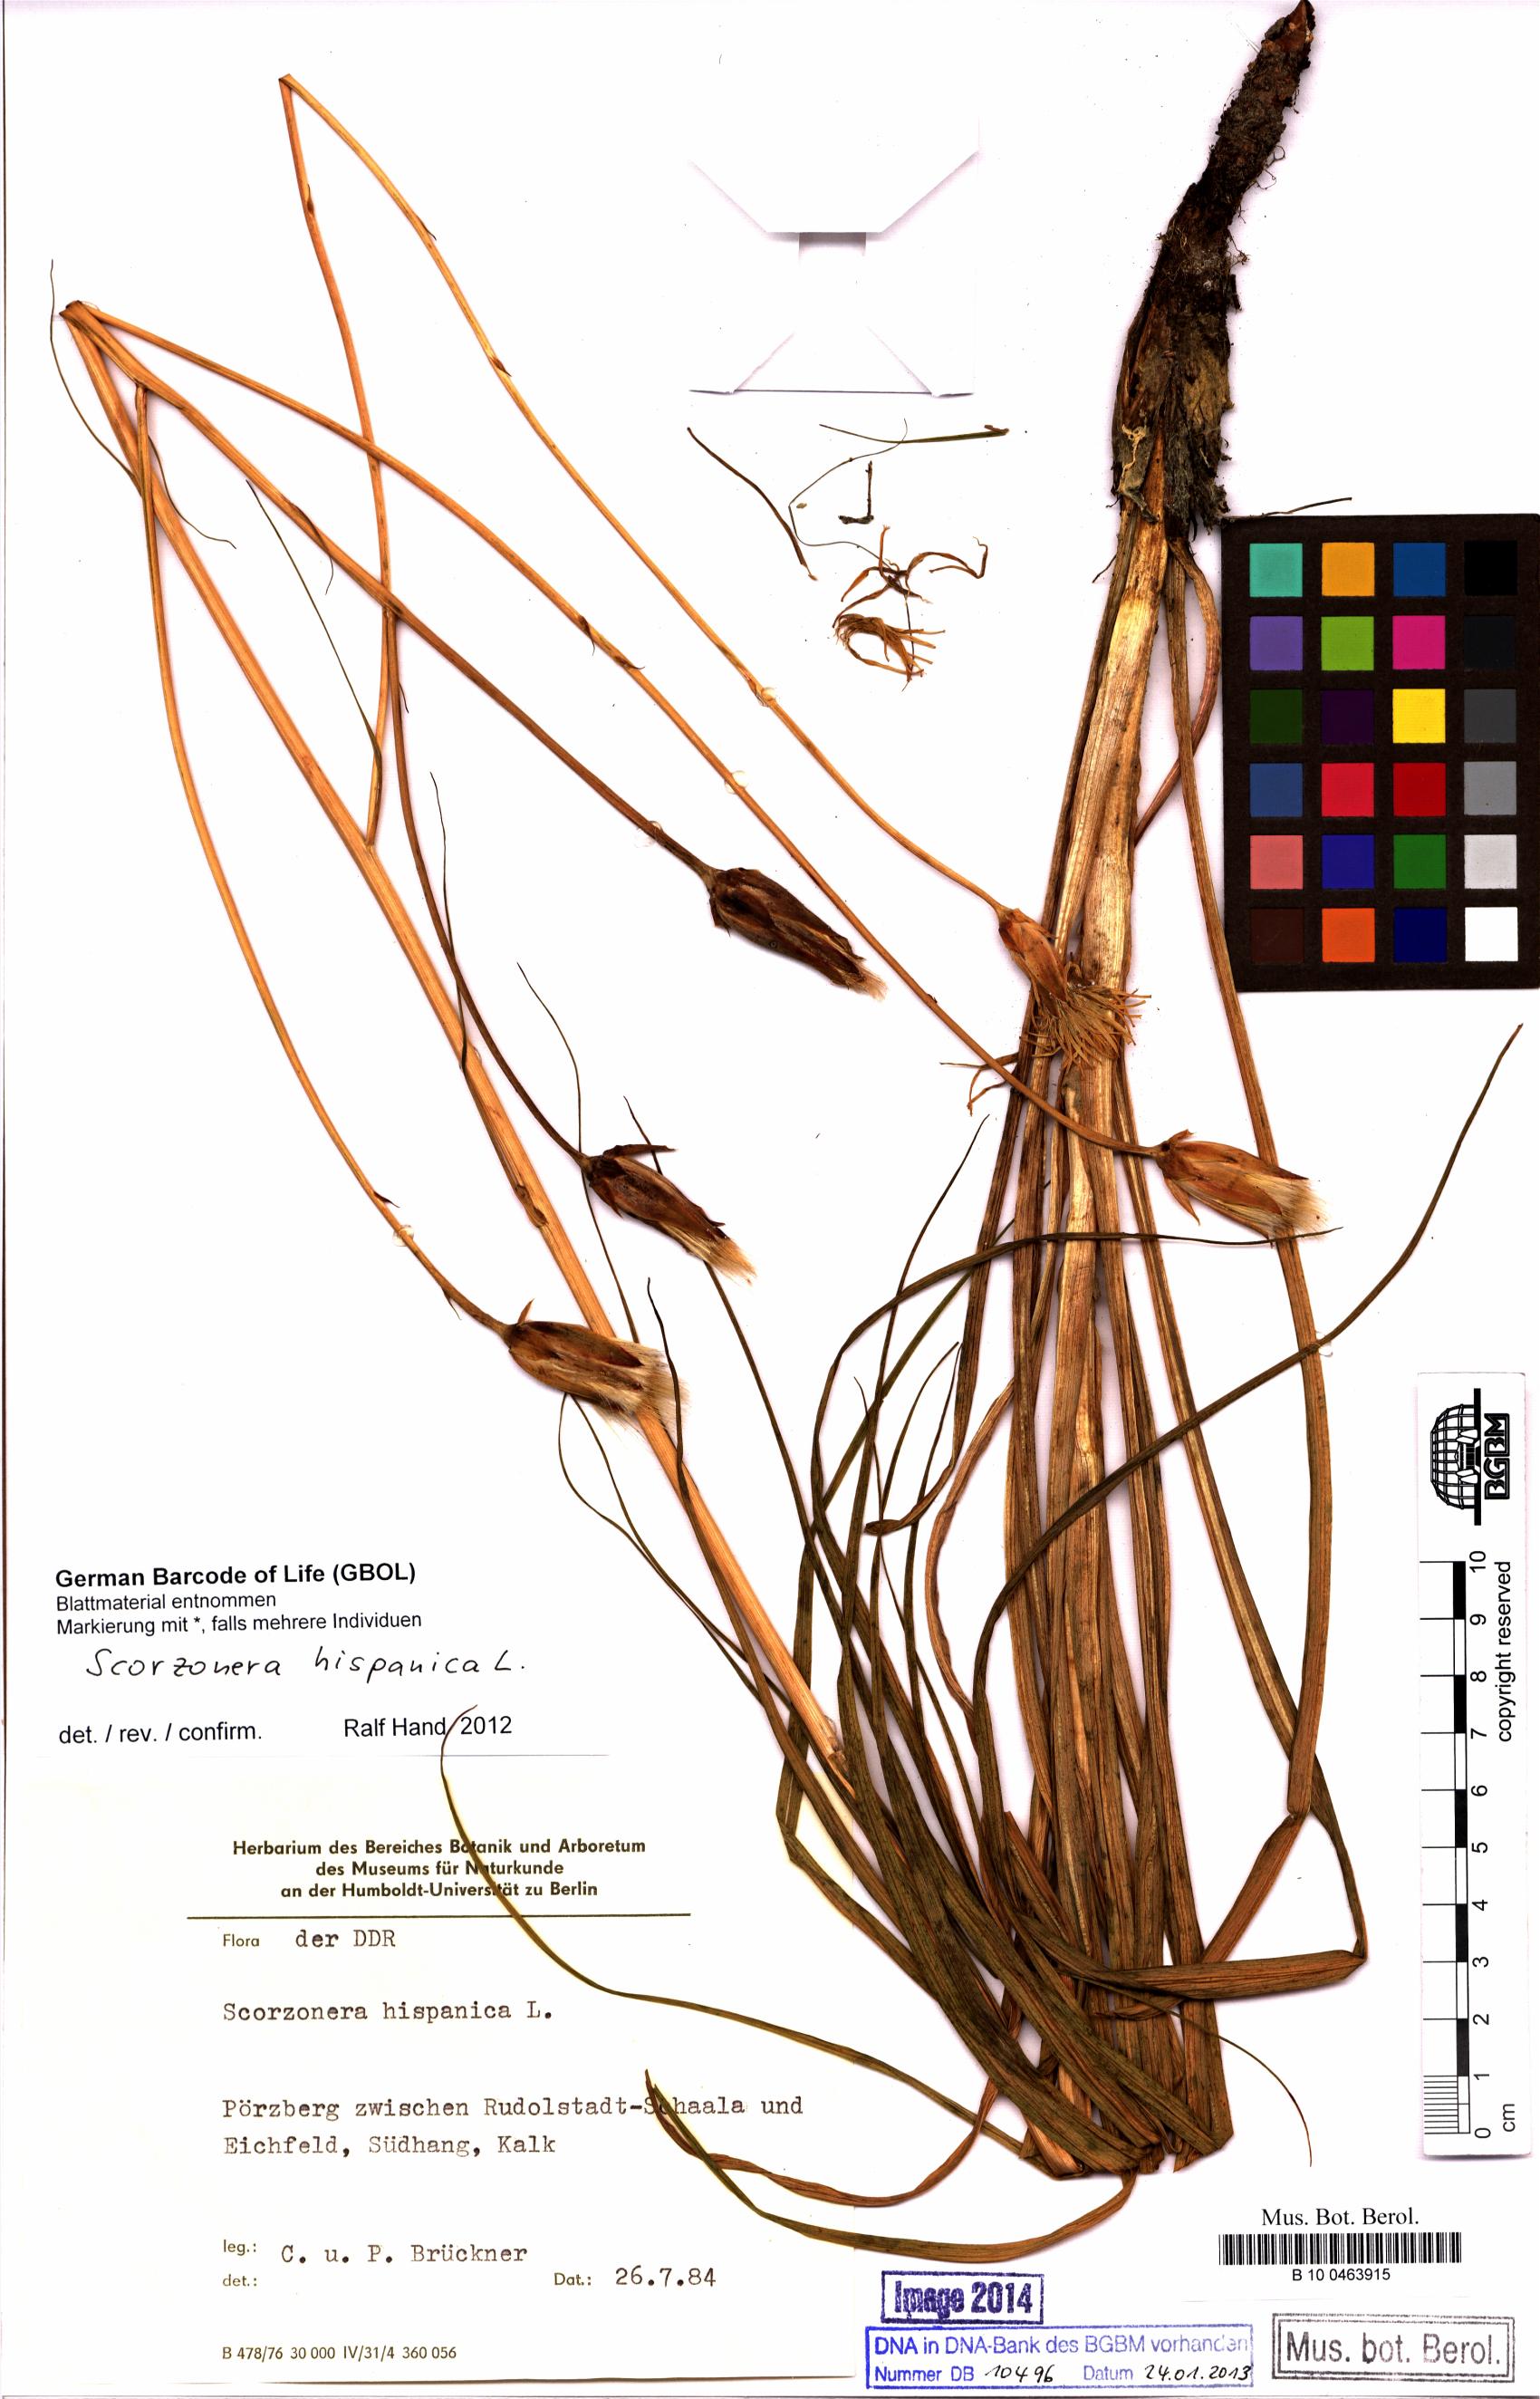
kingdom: Plantae
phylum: Tracheophyta
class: Magnoliopsida
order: Asterales
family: Asteraceae
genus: Pseudopodospermum
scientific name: Pseudopodospermum hispanicum
